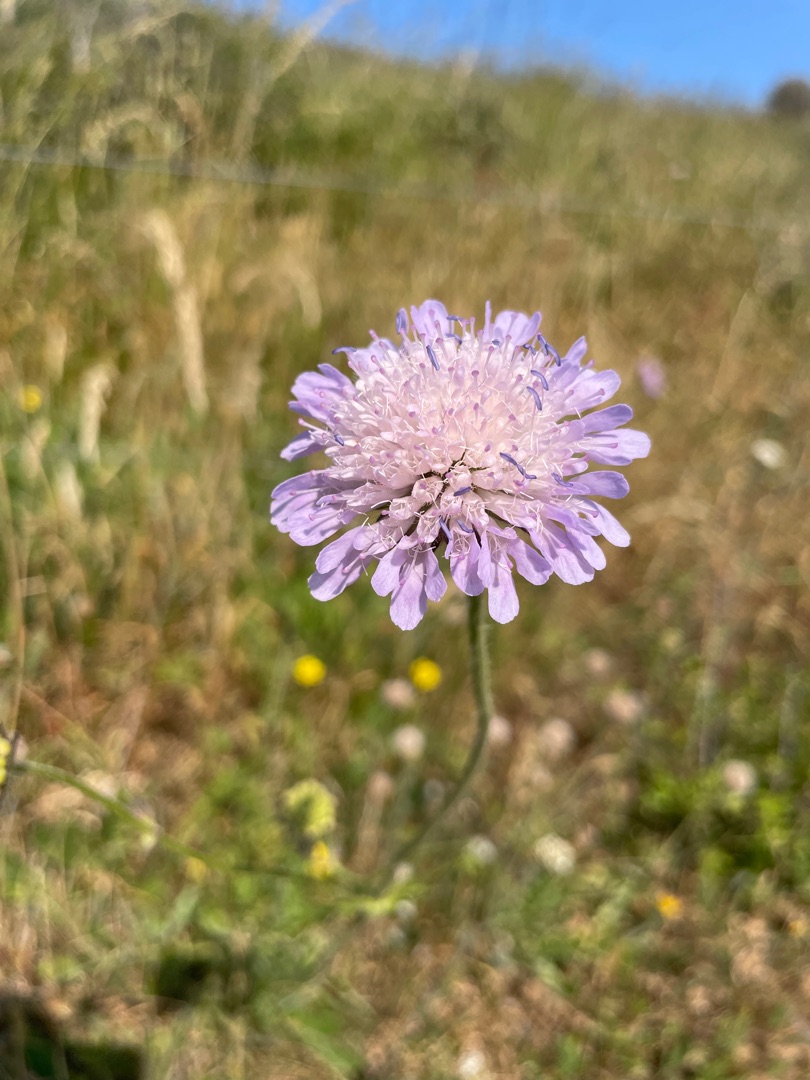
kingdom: Plantae
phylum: Tracheophyta
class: Magnoliopsida
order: Dipsacales
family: Caprifoliaceae
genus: Knautia
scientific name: Knautia arvensis
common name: Blåhat
